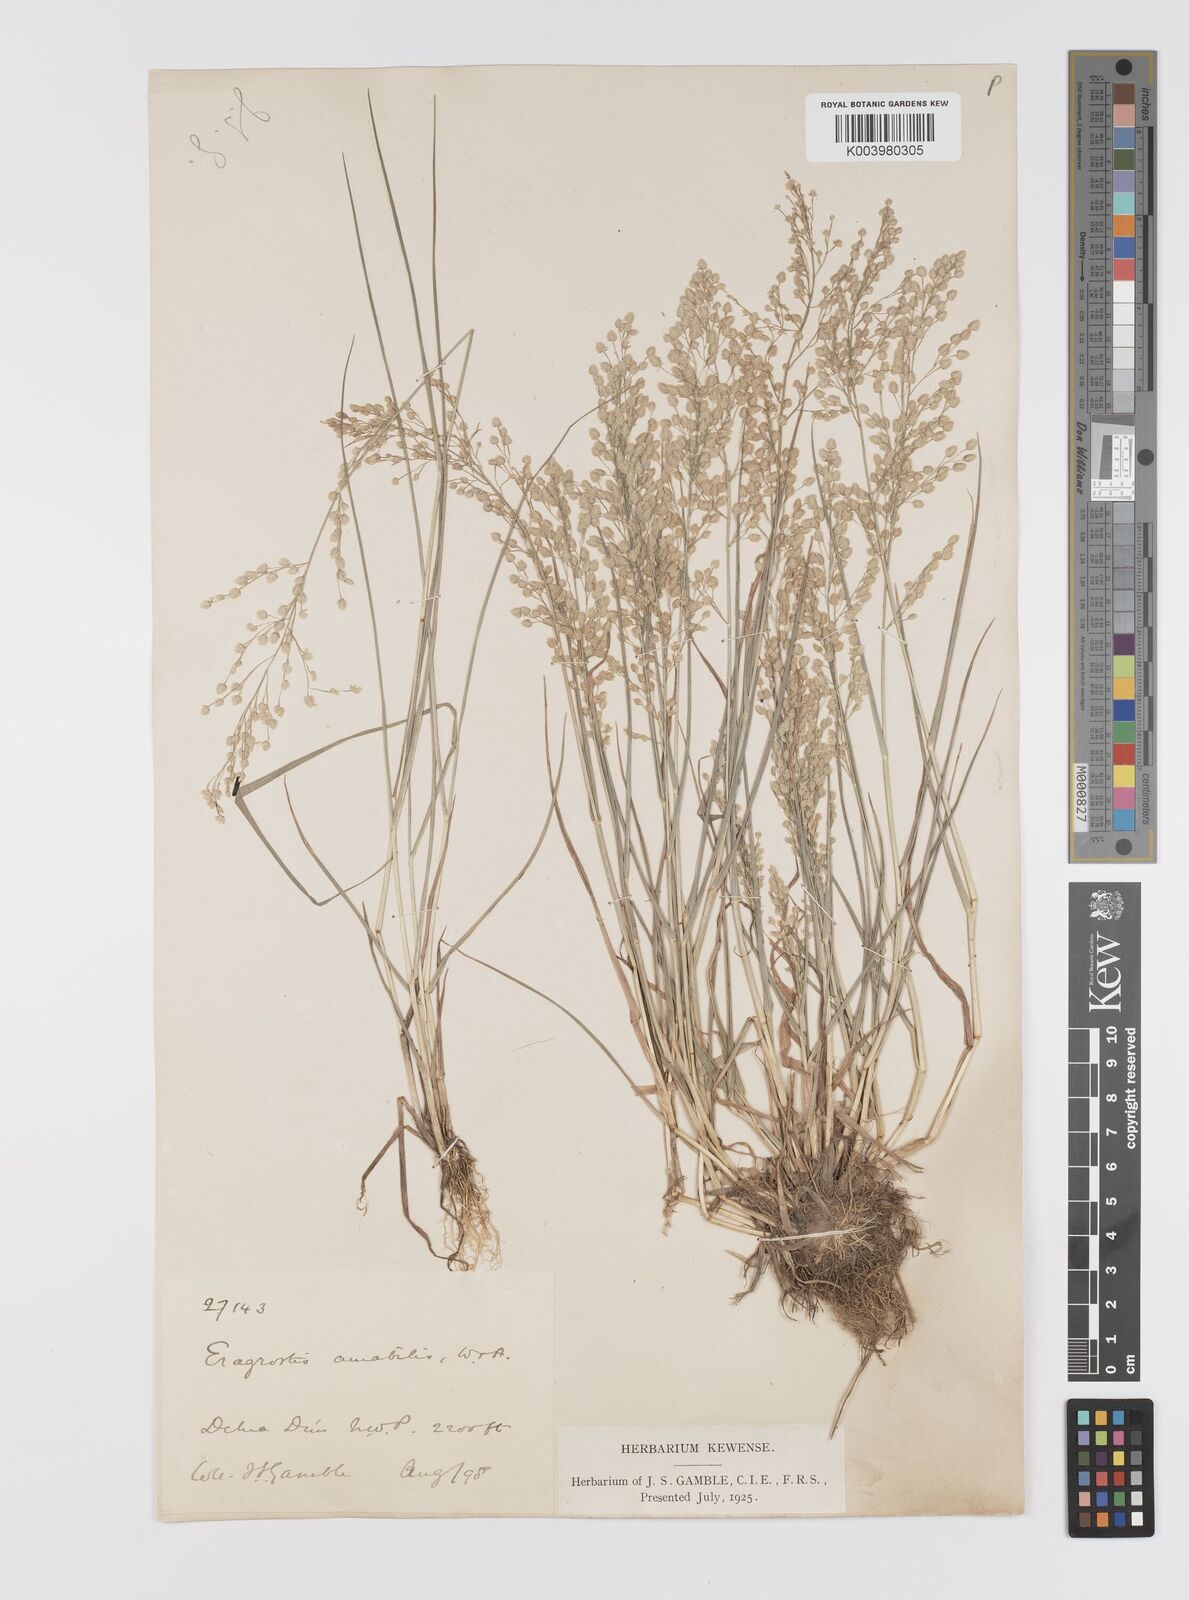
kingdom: Plantae
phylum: Tracheophyta
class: Liliopsida
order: Poales
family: Poaceae
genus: Eragrostis
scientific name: Eragrostis unioloides
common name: Chinese lovegrass
